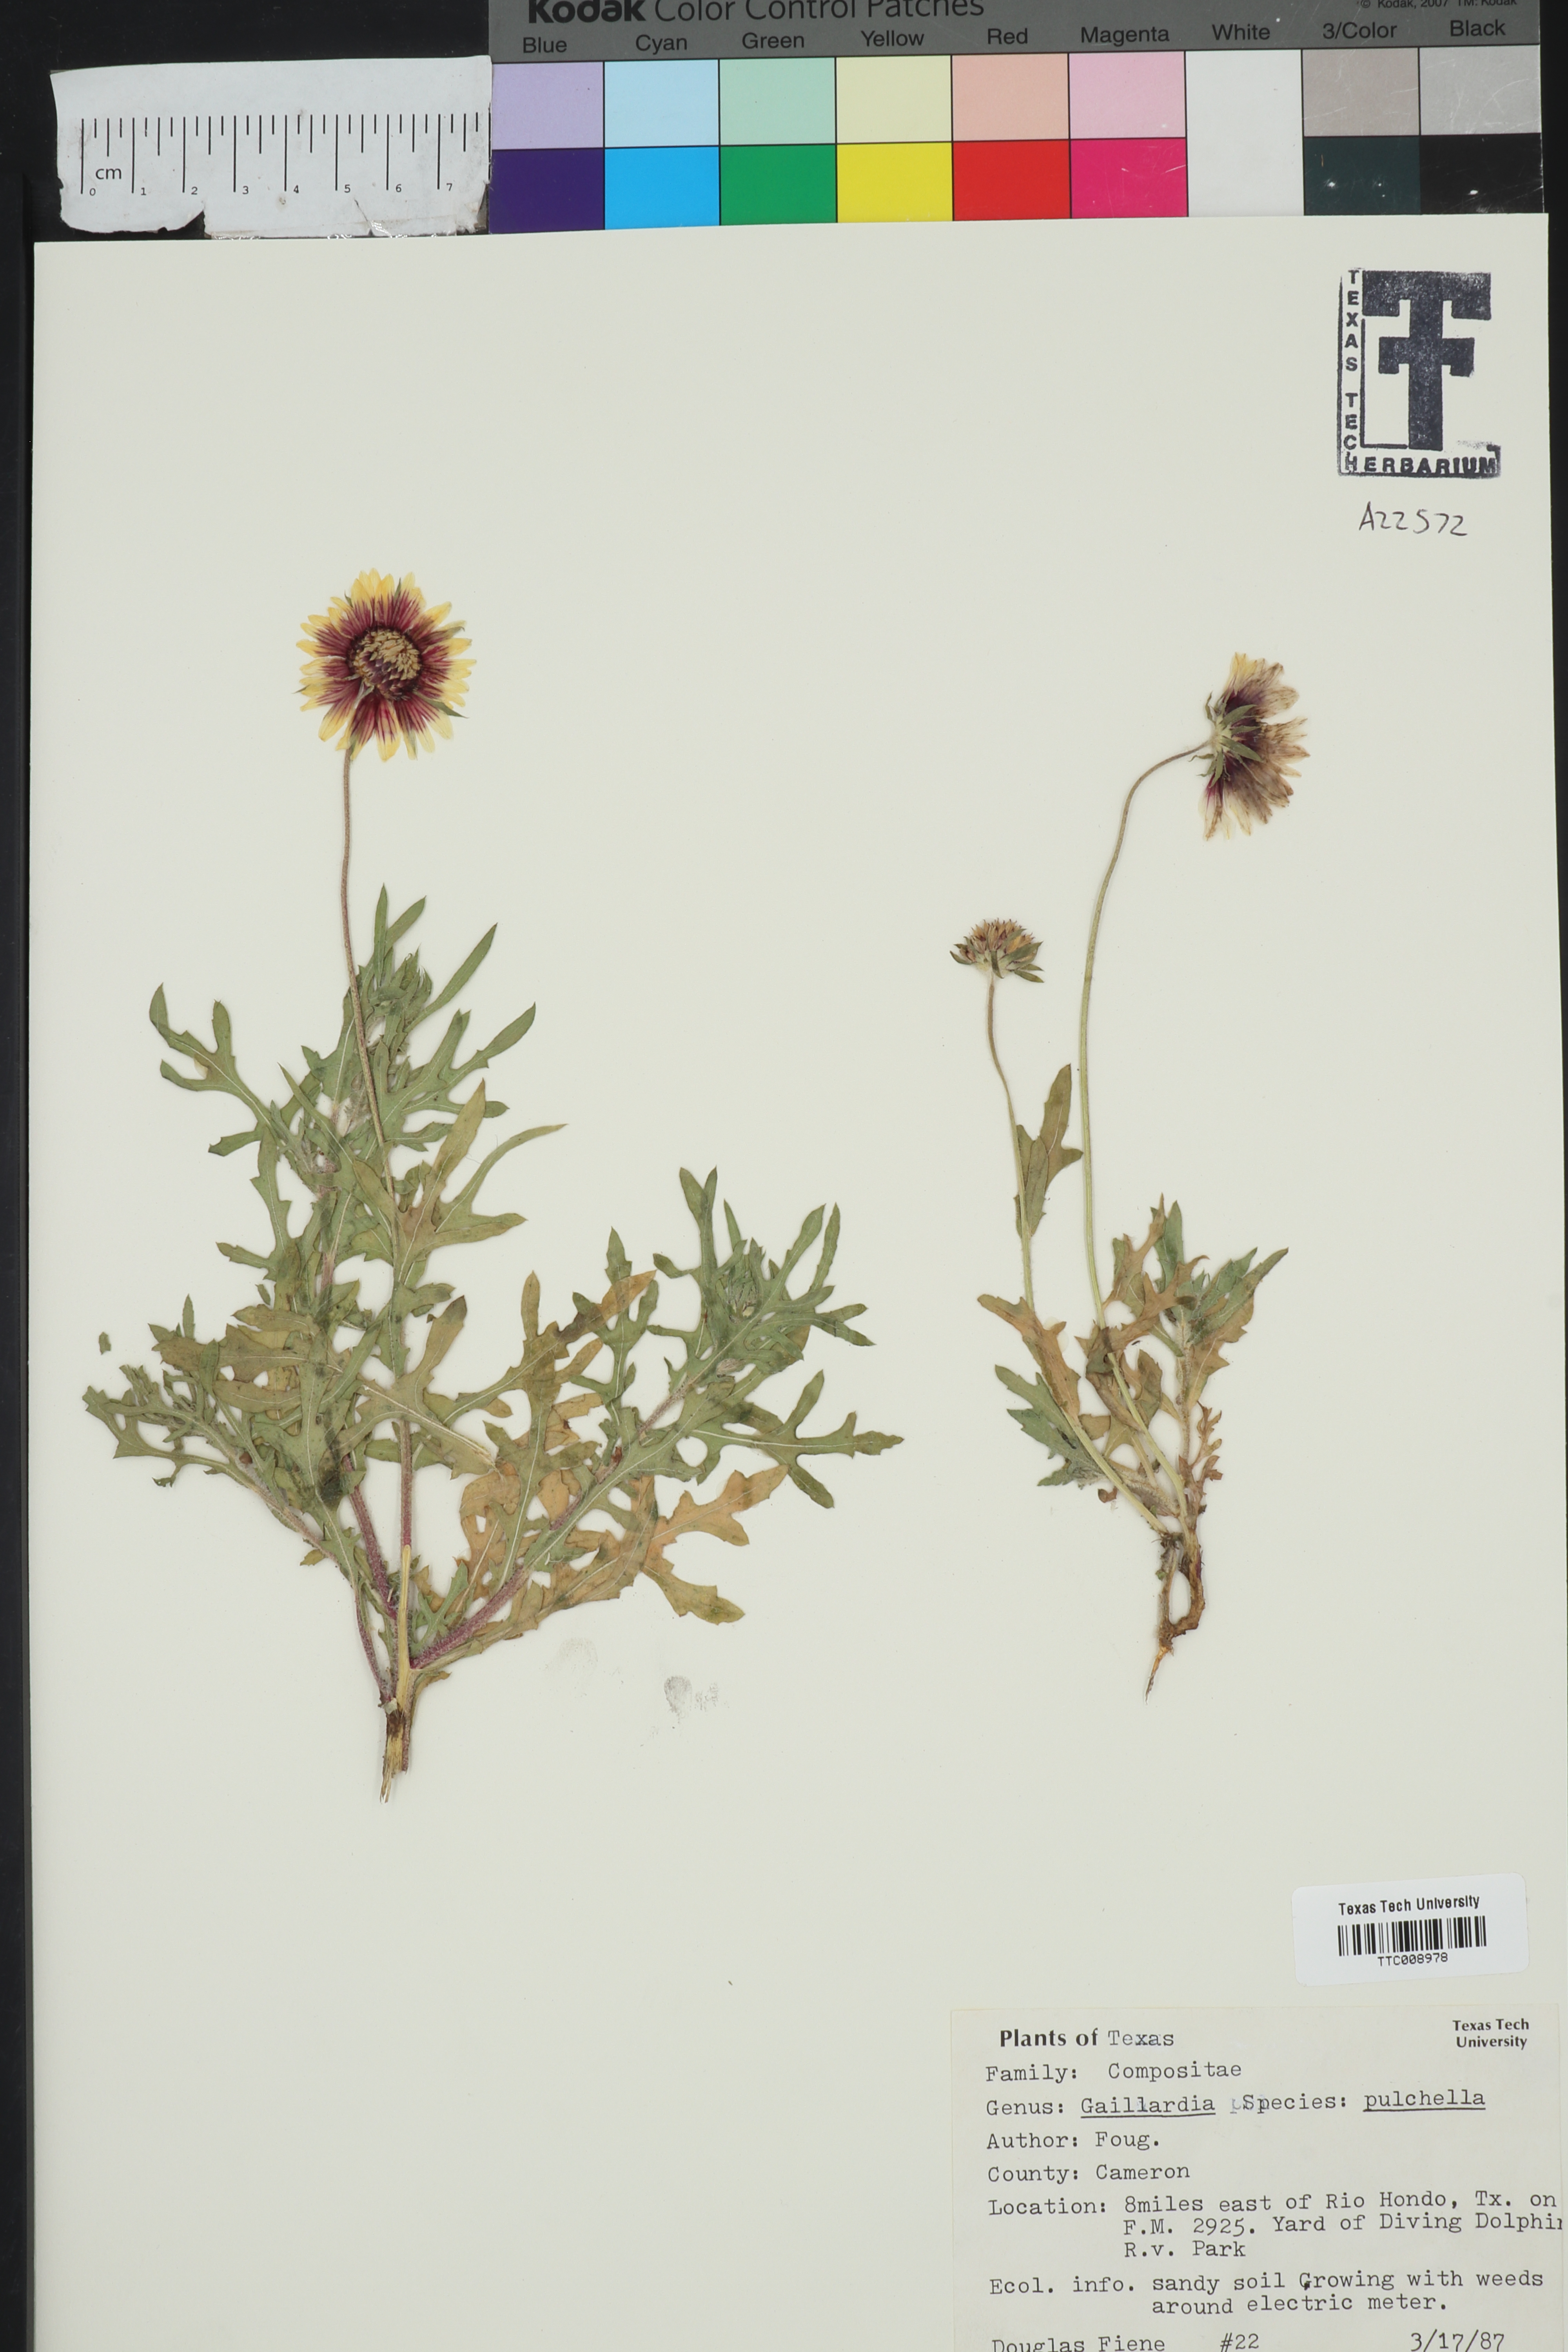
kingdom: Plantae
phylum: Tracheophyta
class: Magnoliopsida
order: Asterales
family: Asteraceae
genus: Gaillardia
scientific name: Gaillardia pulchella
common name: Firewheel
